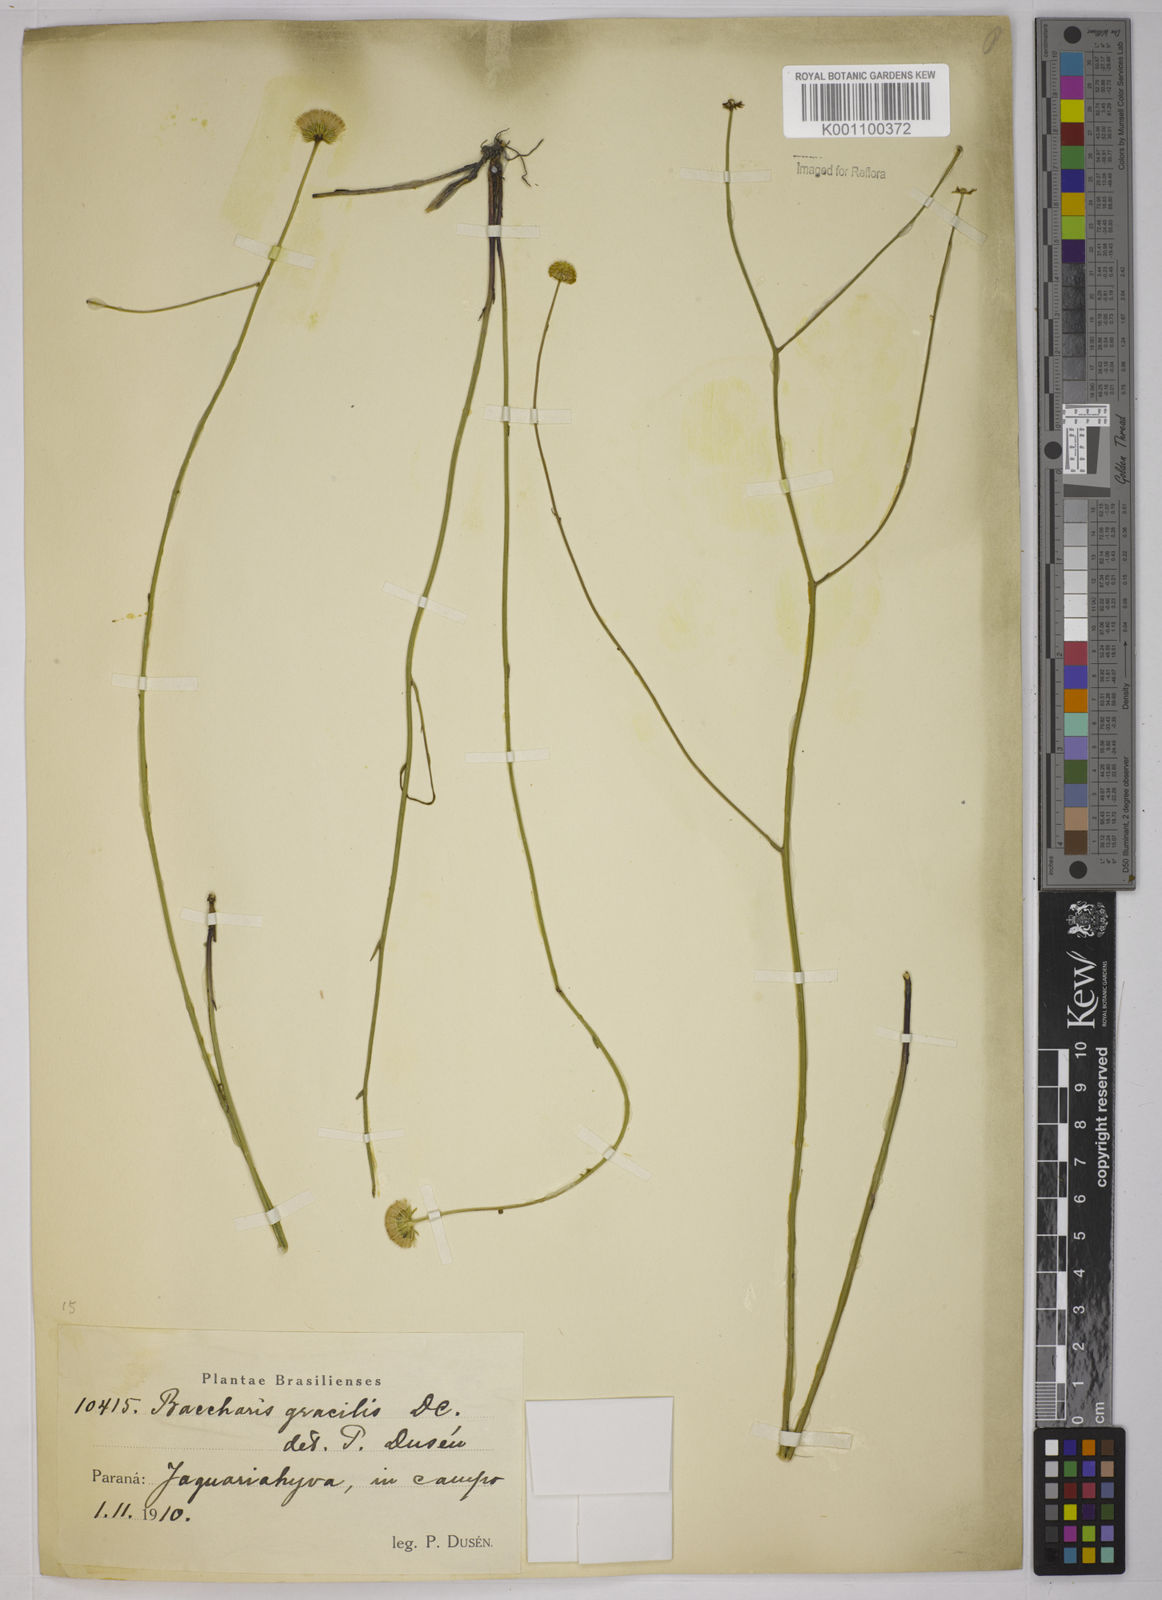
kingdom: Plantae
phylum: Tracheophyta
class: Magnoliopsida
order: Asterales
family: Asteraceae
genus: Baccharis
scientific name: Baccharis orbignyana
